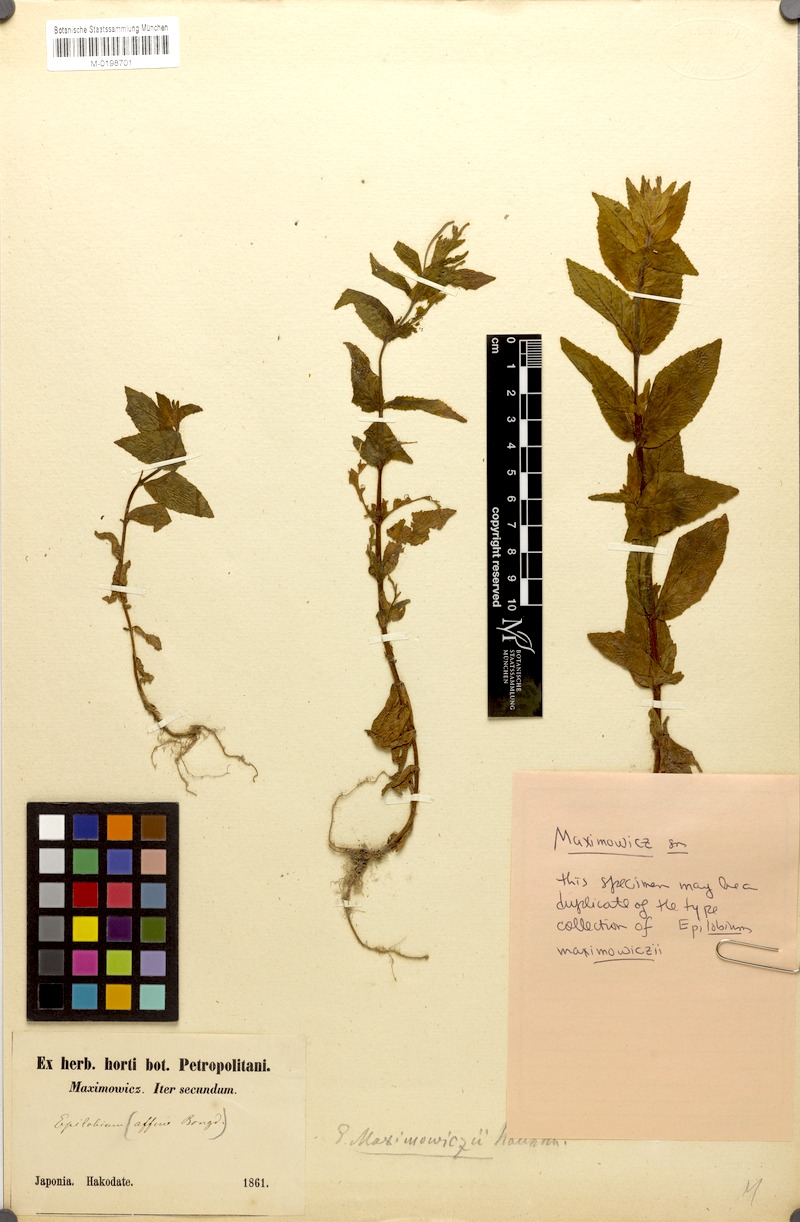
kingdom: Plantae
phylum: Tracheophyta
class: Magnoliopsida
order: Myrtales
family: Onagraceae
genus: Epilobium
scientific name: Epilobium ciliatum
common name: American willowherb
